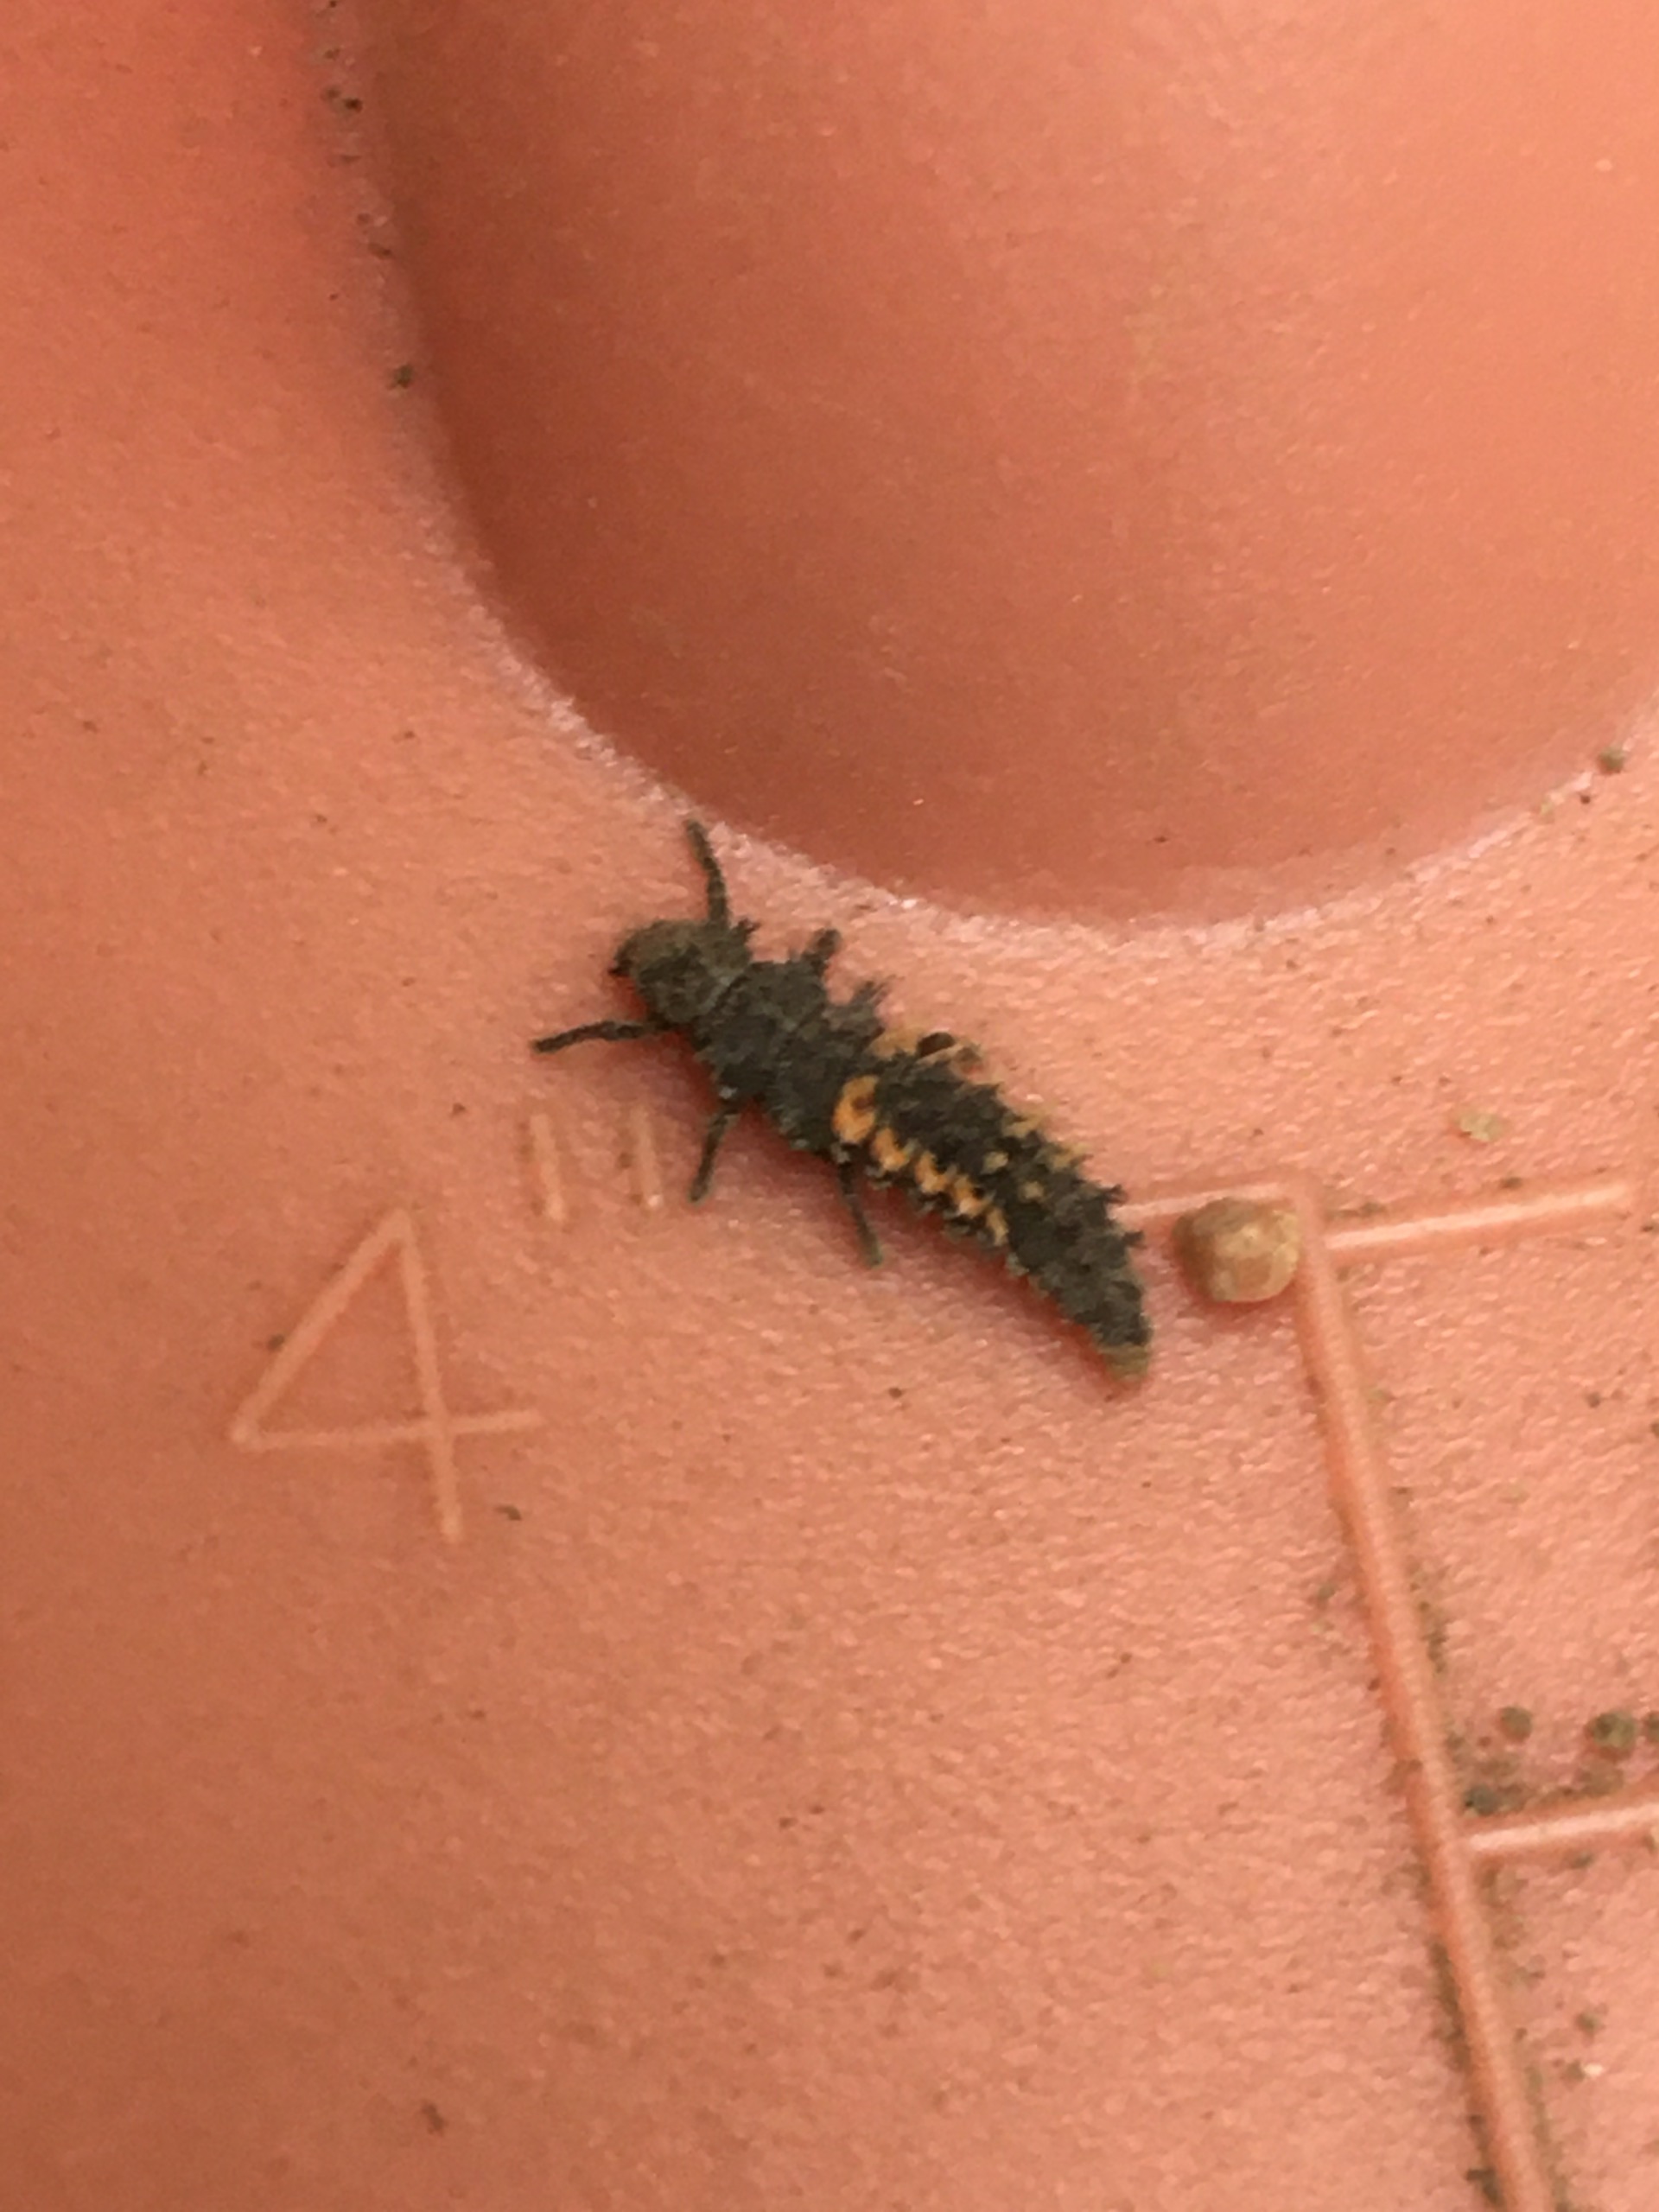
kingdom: Animalia
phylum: Arthropoda
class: Insecta
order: Coleoptera
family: Coccinellidae
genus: Harmonia
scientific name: Harmonia axyridis
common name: Harlekinmariehøne
